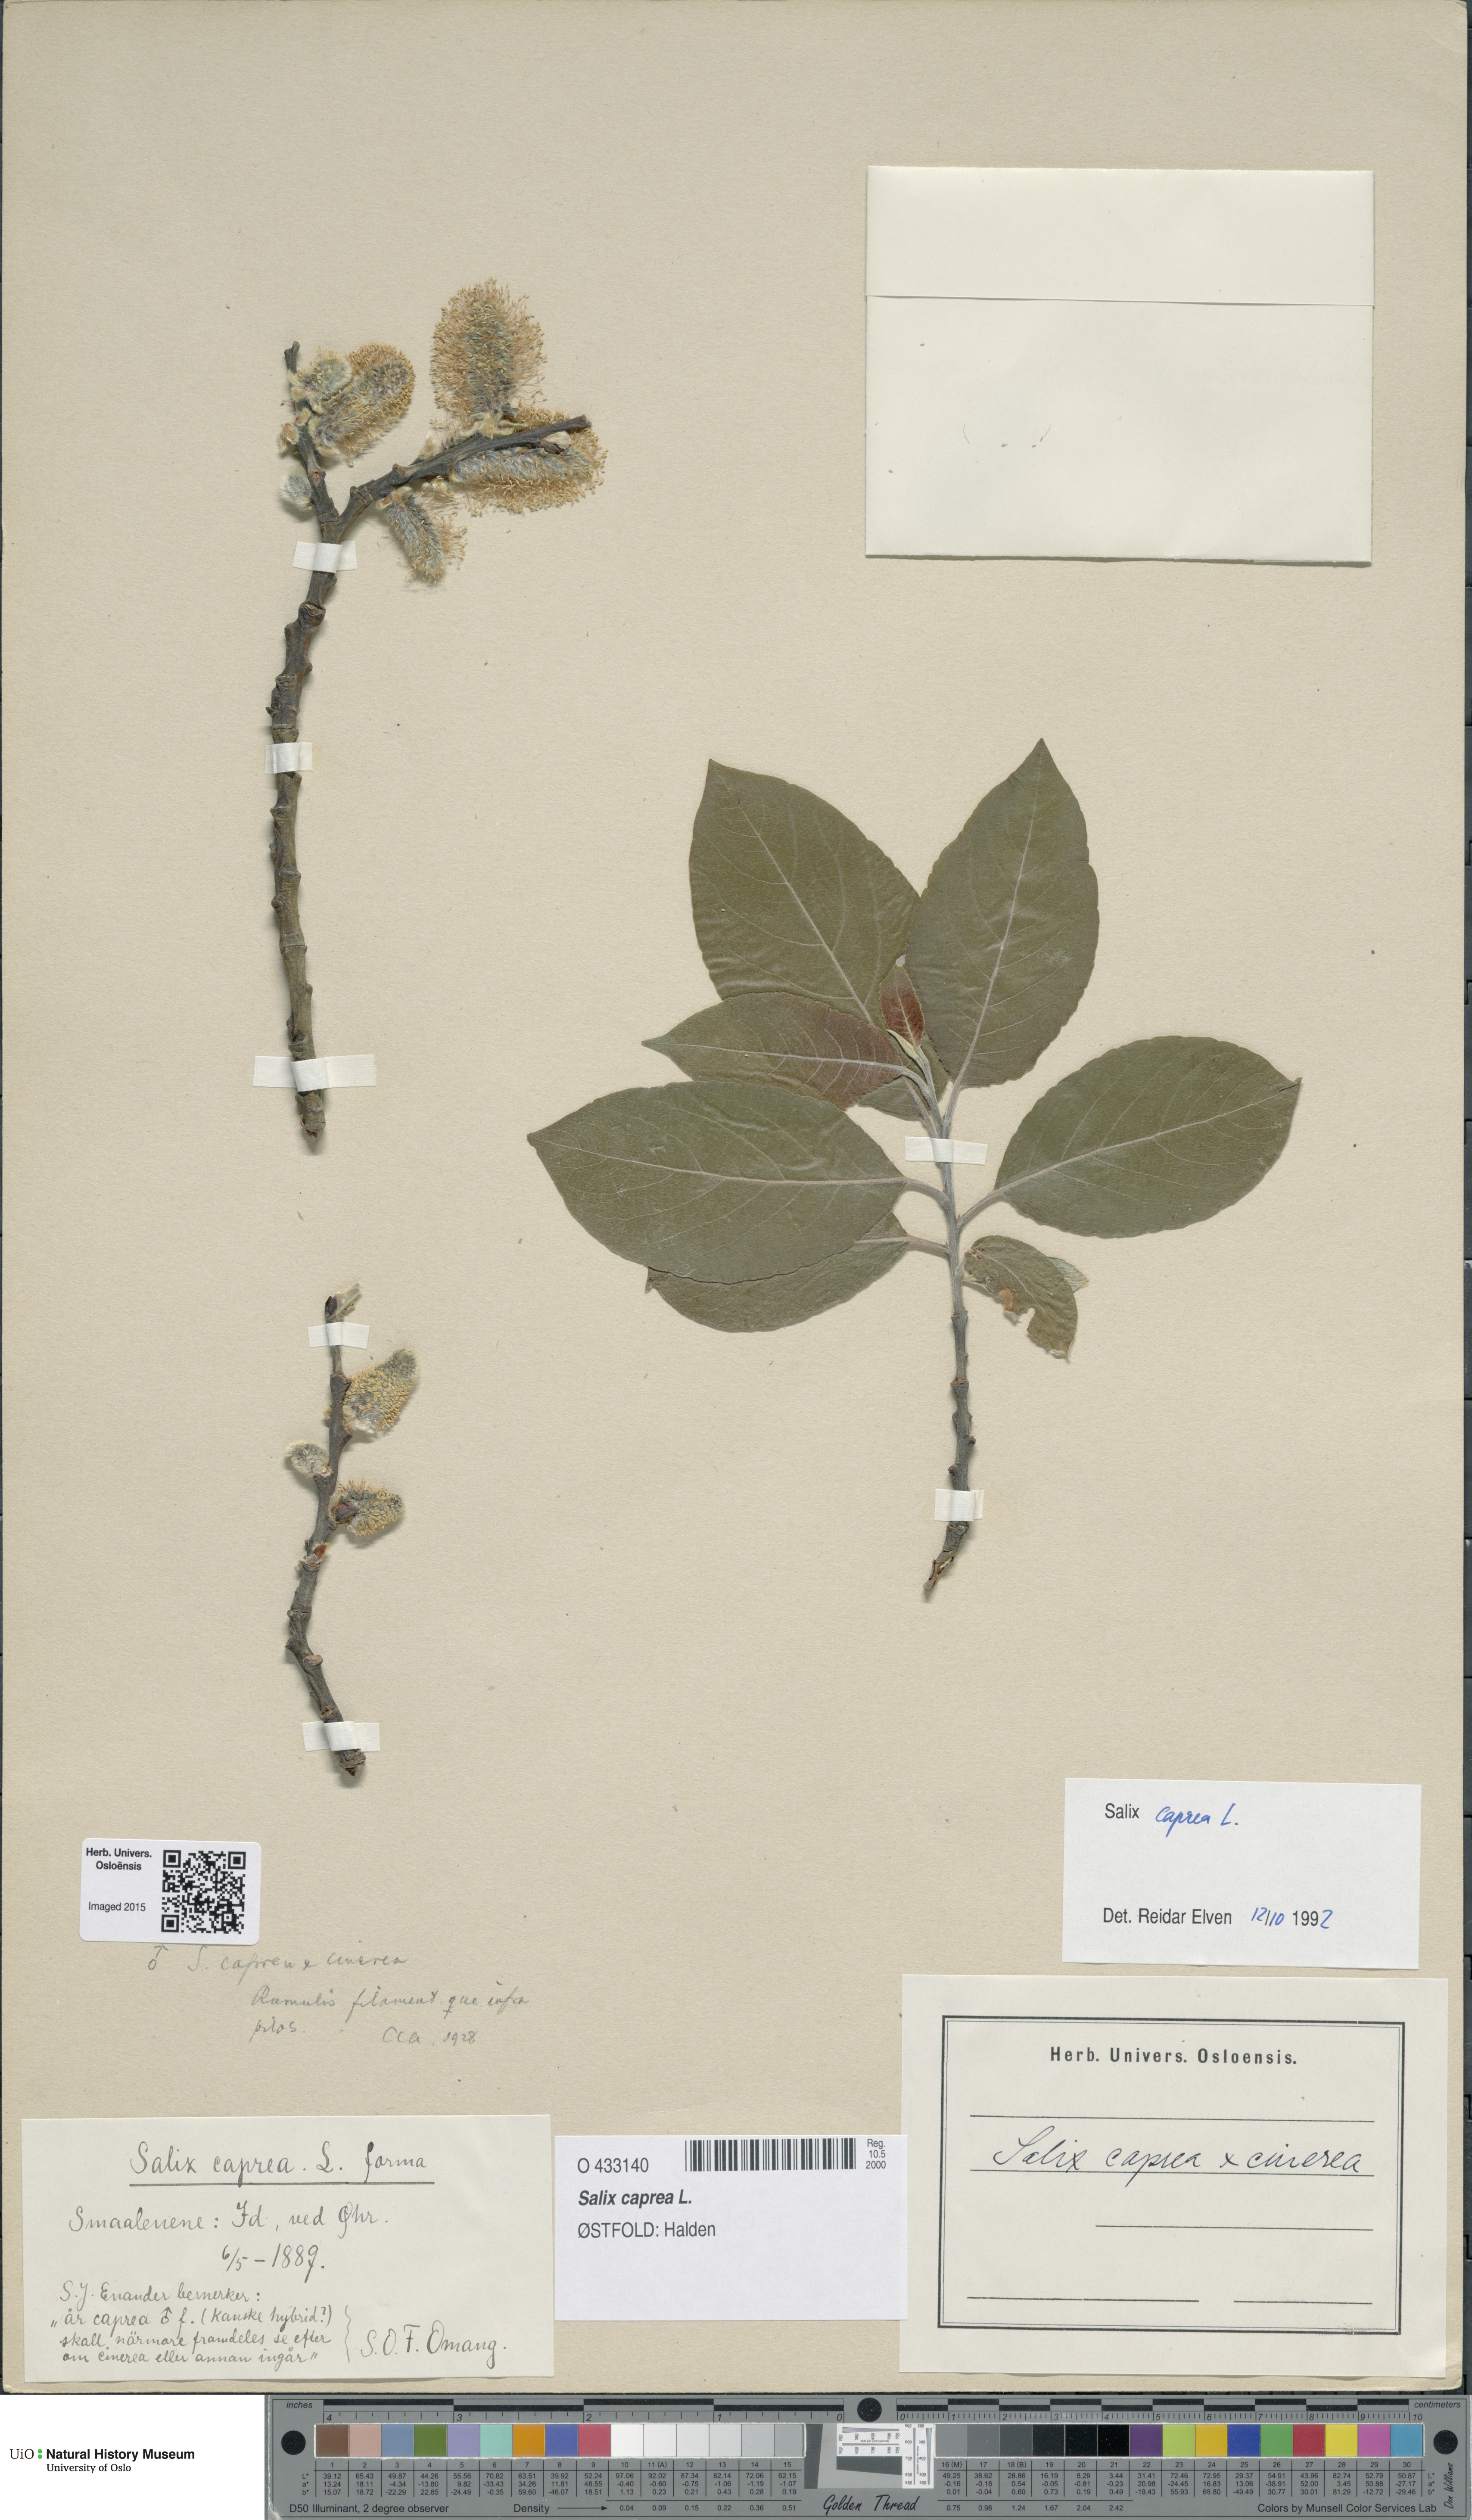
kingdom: Plantae
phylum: Tracheophyta
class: Magnoliopsida
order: Malpighiales
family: Salicaceae
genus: Salix
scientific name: Salix caprea
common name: Goat willow
